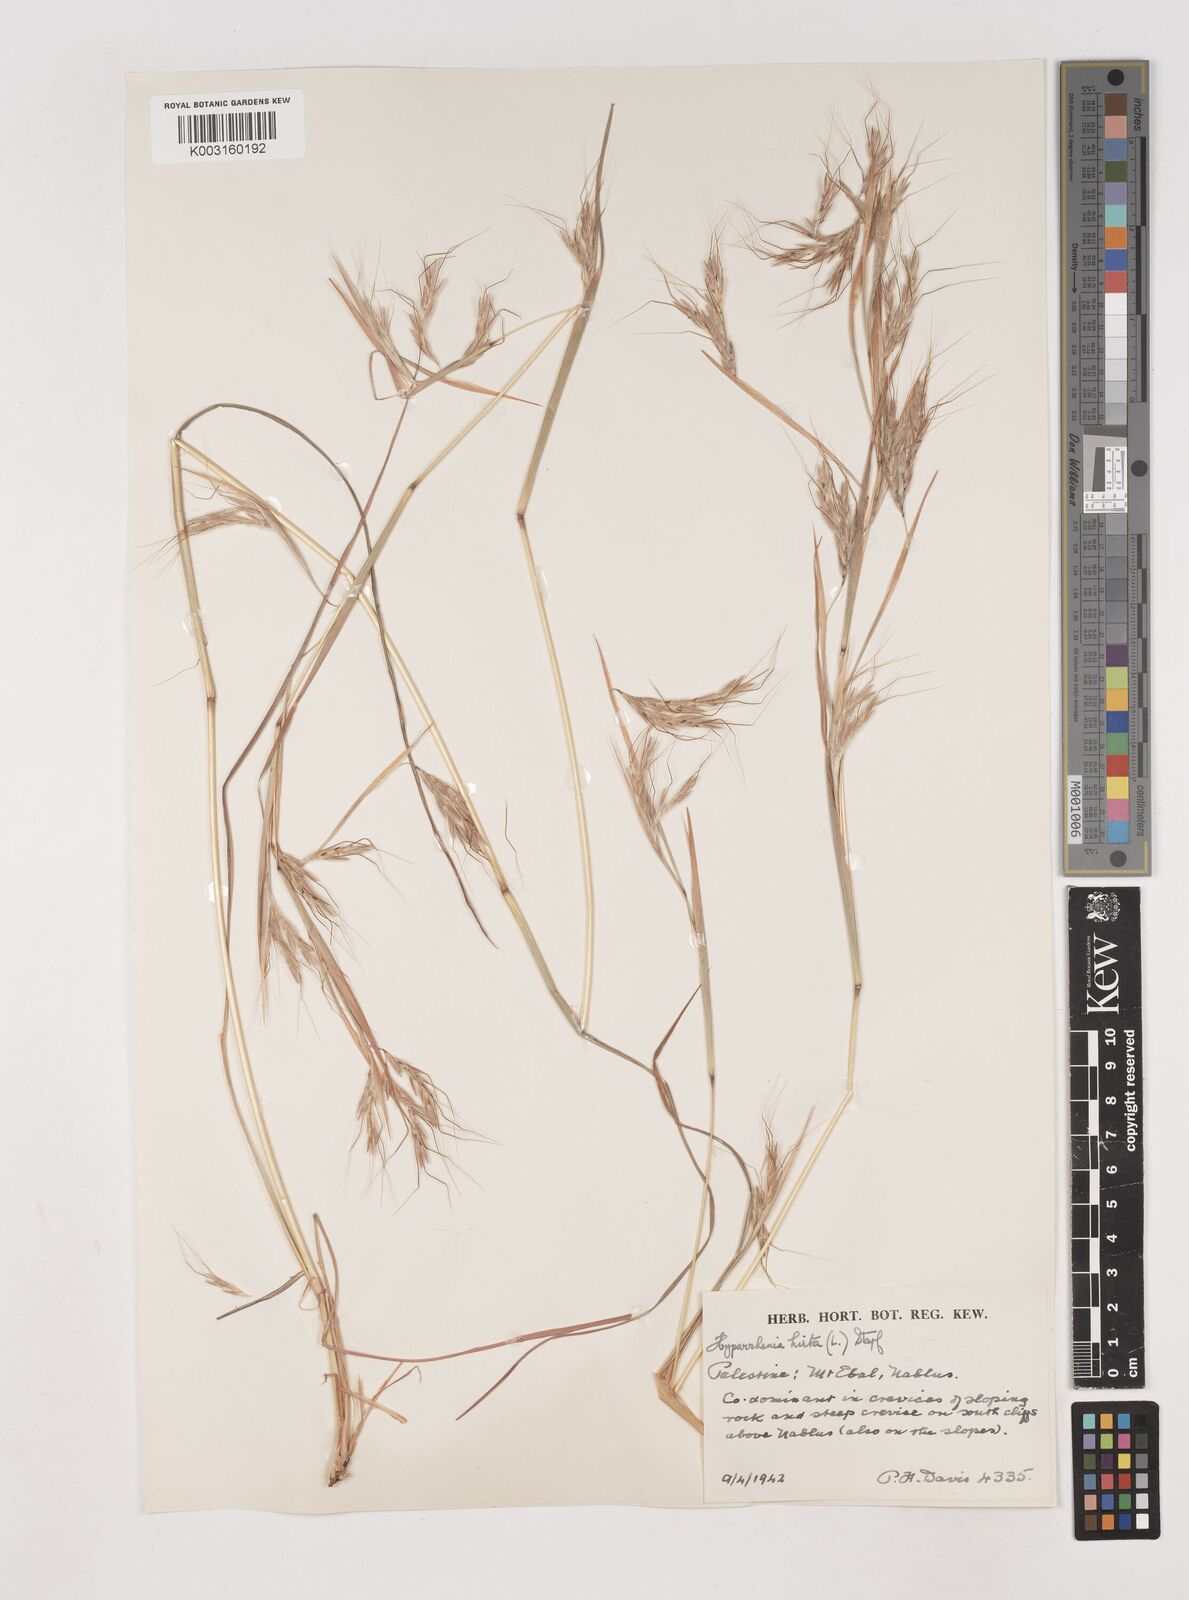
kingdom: Plantae
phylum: Tracheophyta
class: Liliopsida
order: Poales
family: Poaceae
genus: Hyparrhenia
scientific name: Hyparrhenia hirta
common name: Thatching grass
